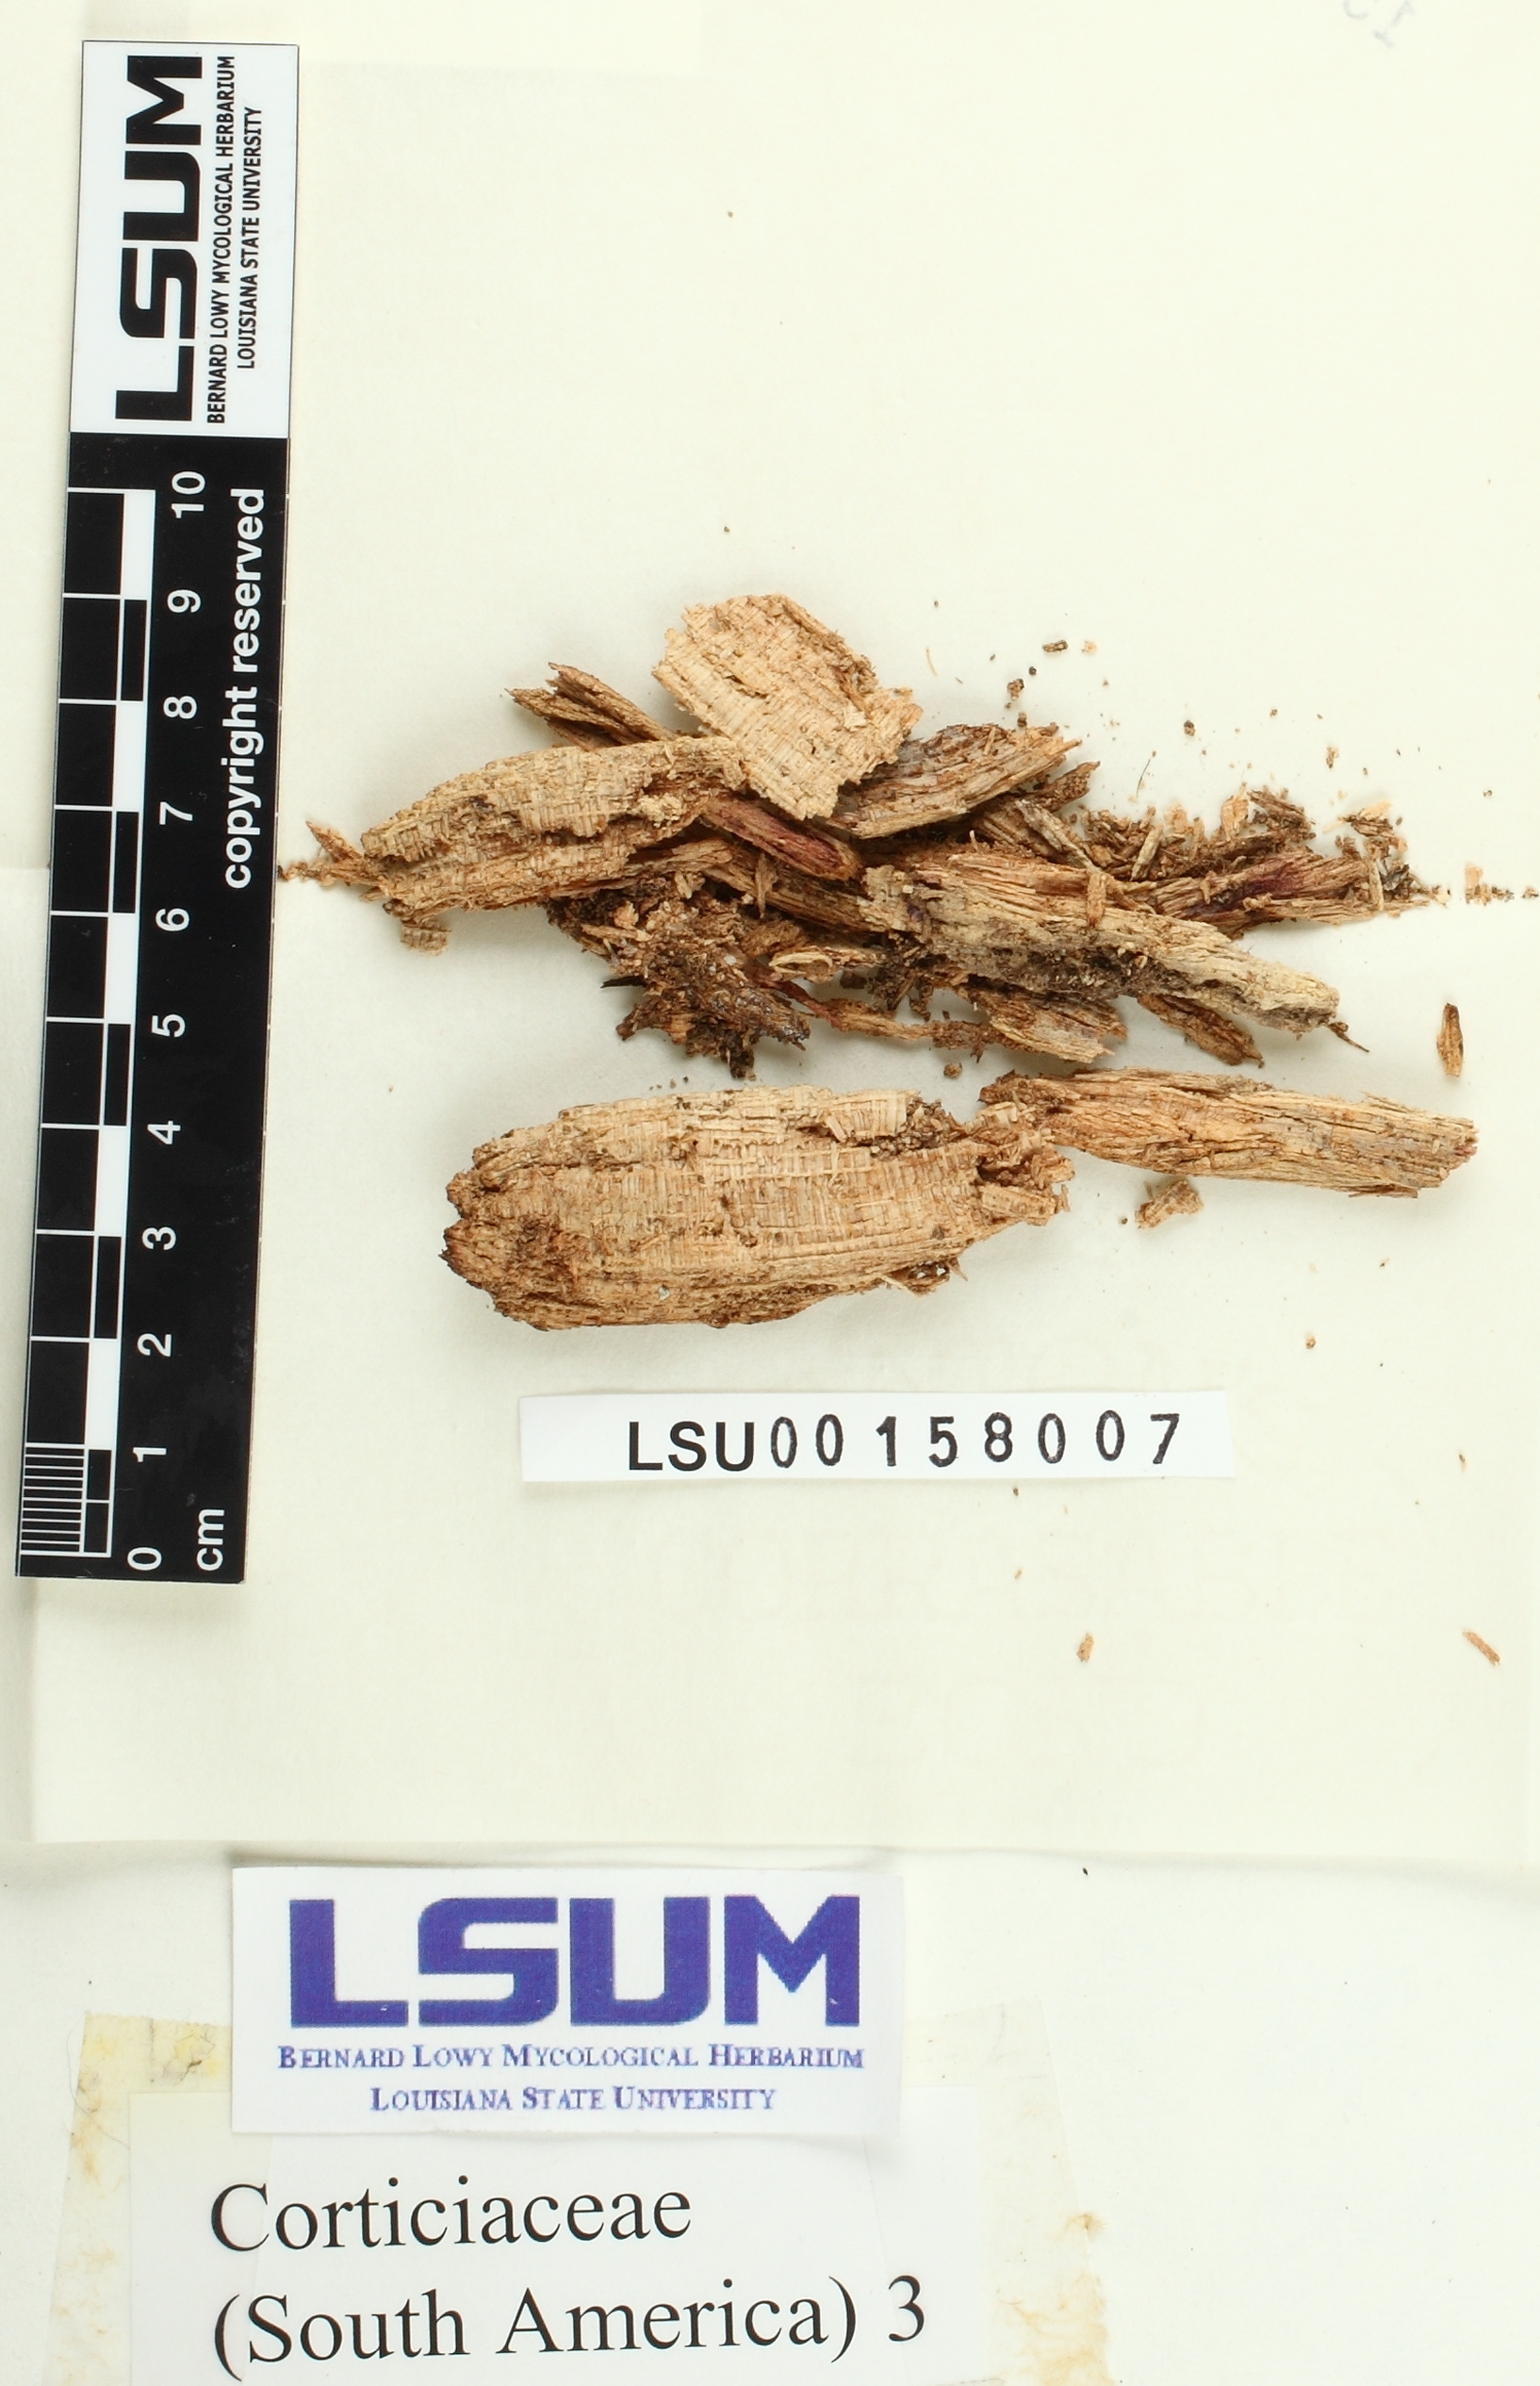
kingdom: Fungi
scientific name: Fungi
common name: Fungi
